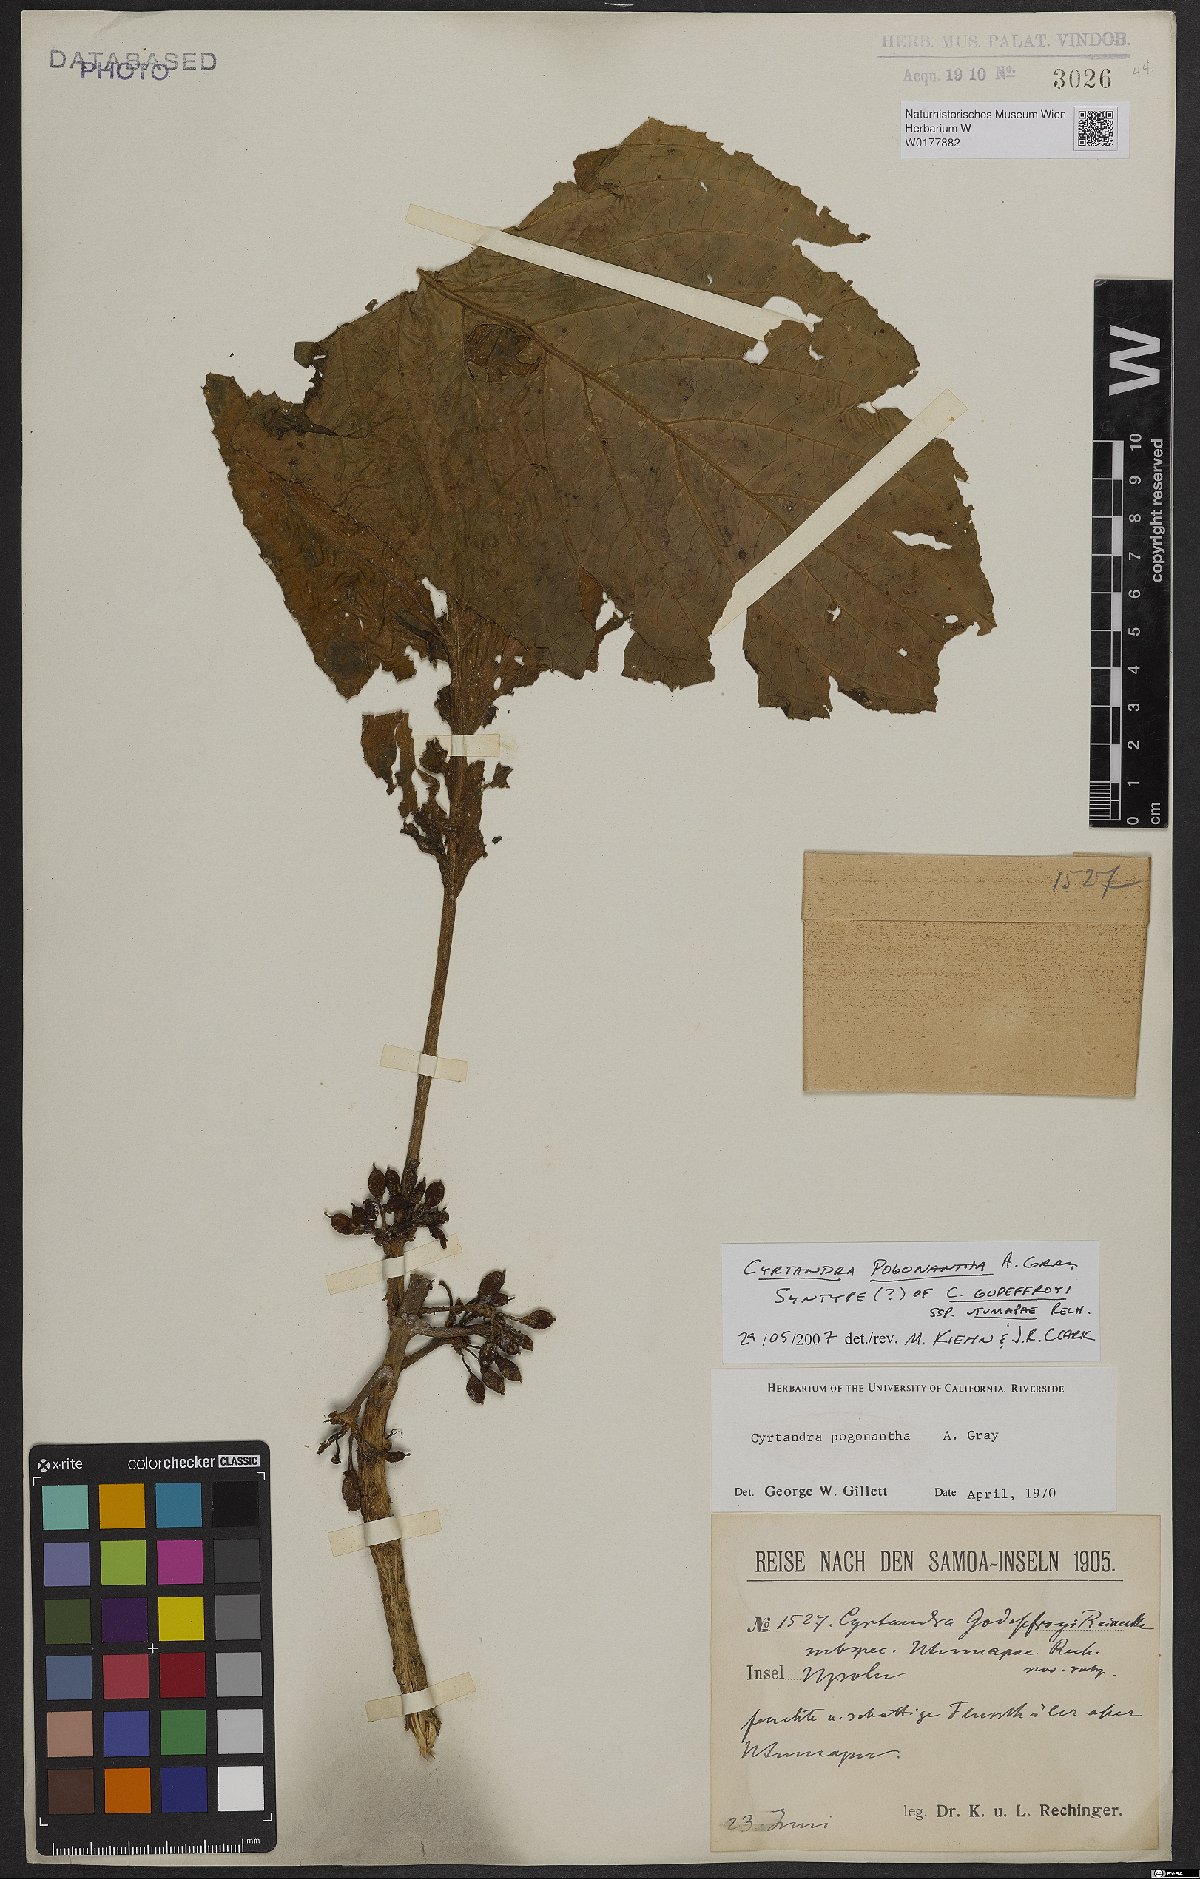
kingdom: Plantae
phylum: Tracheophyta
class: Magnoliopsida
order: Lamiales
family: Gesneriaceae
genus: Cyrtandra
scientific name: Cyrtandra pogonantha
